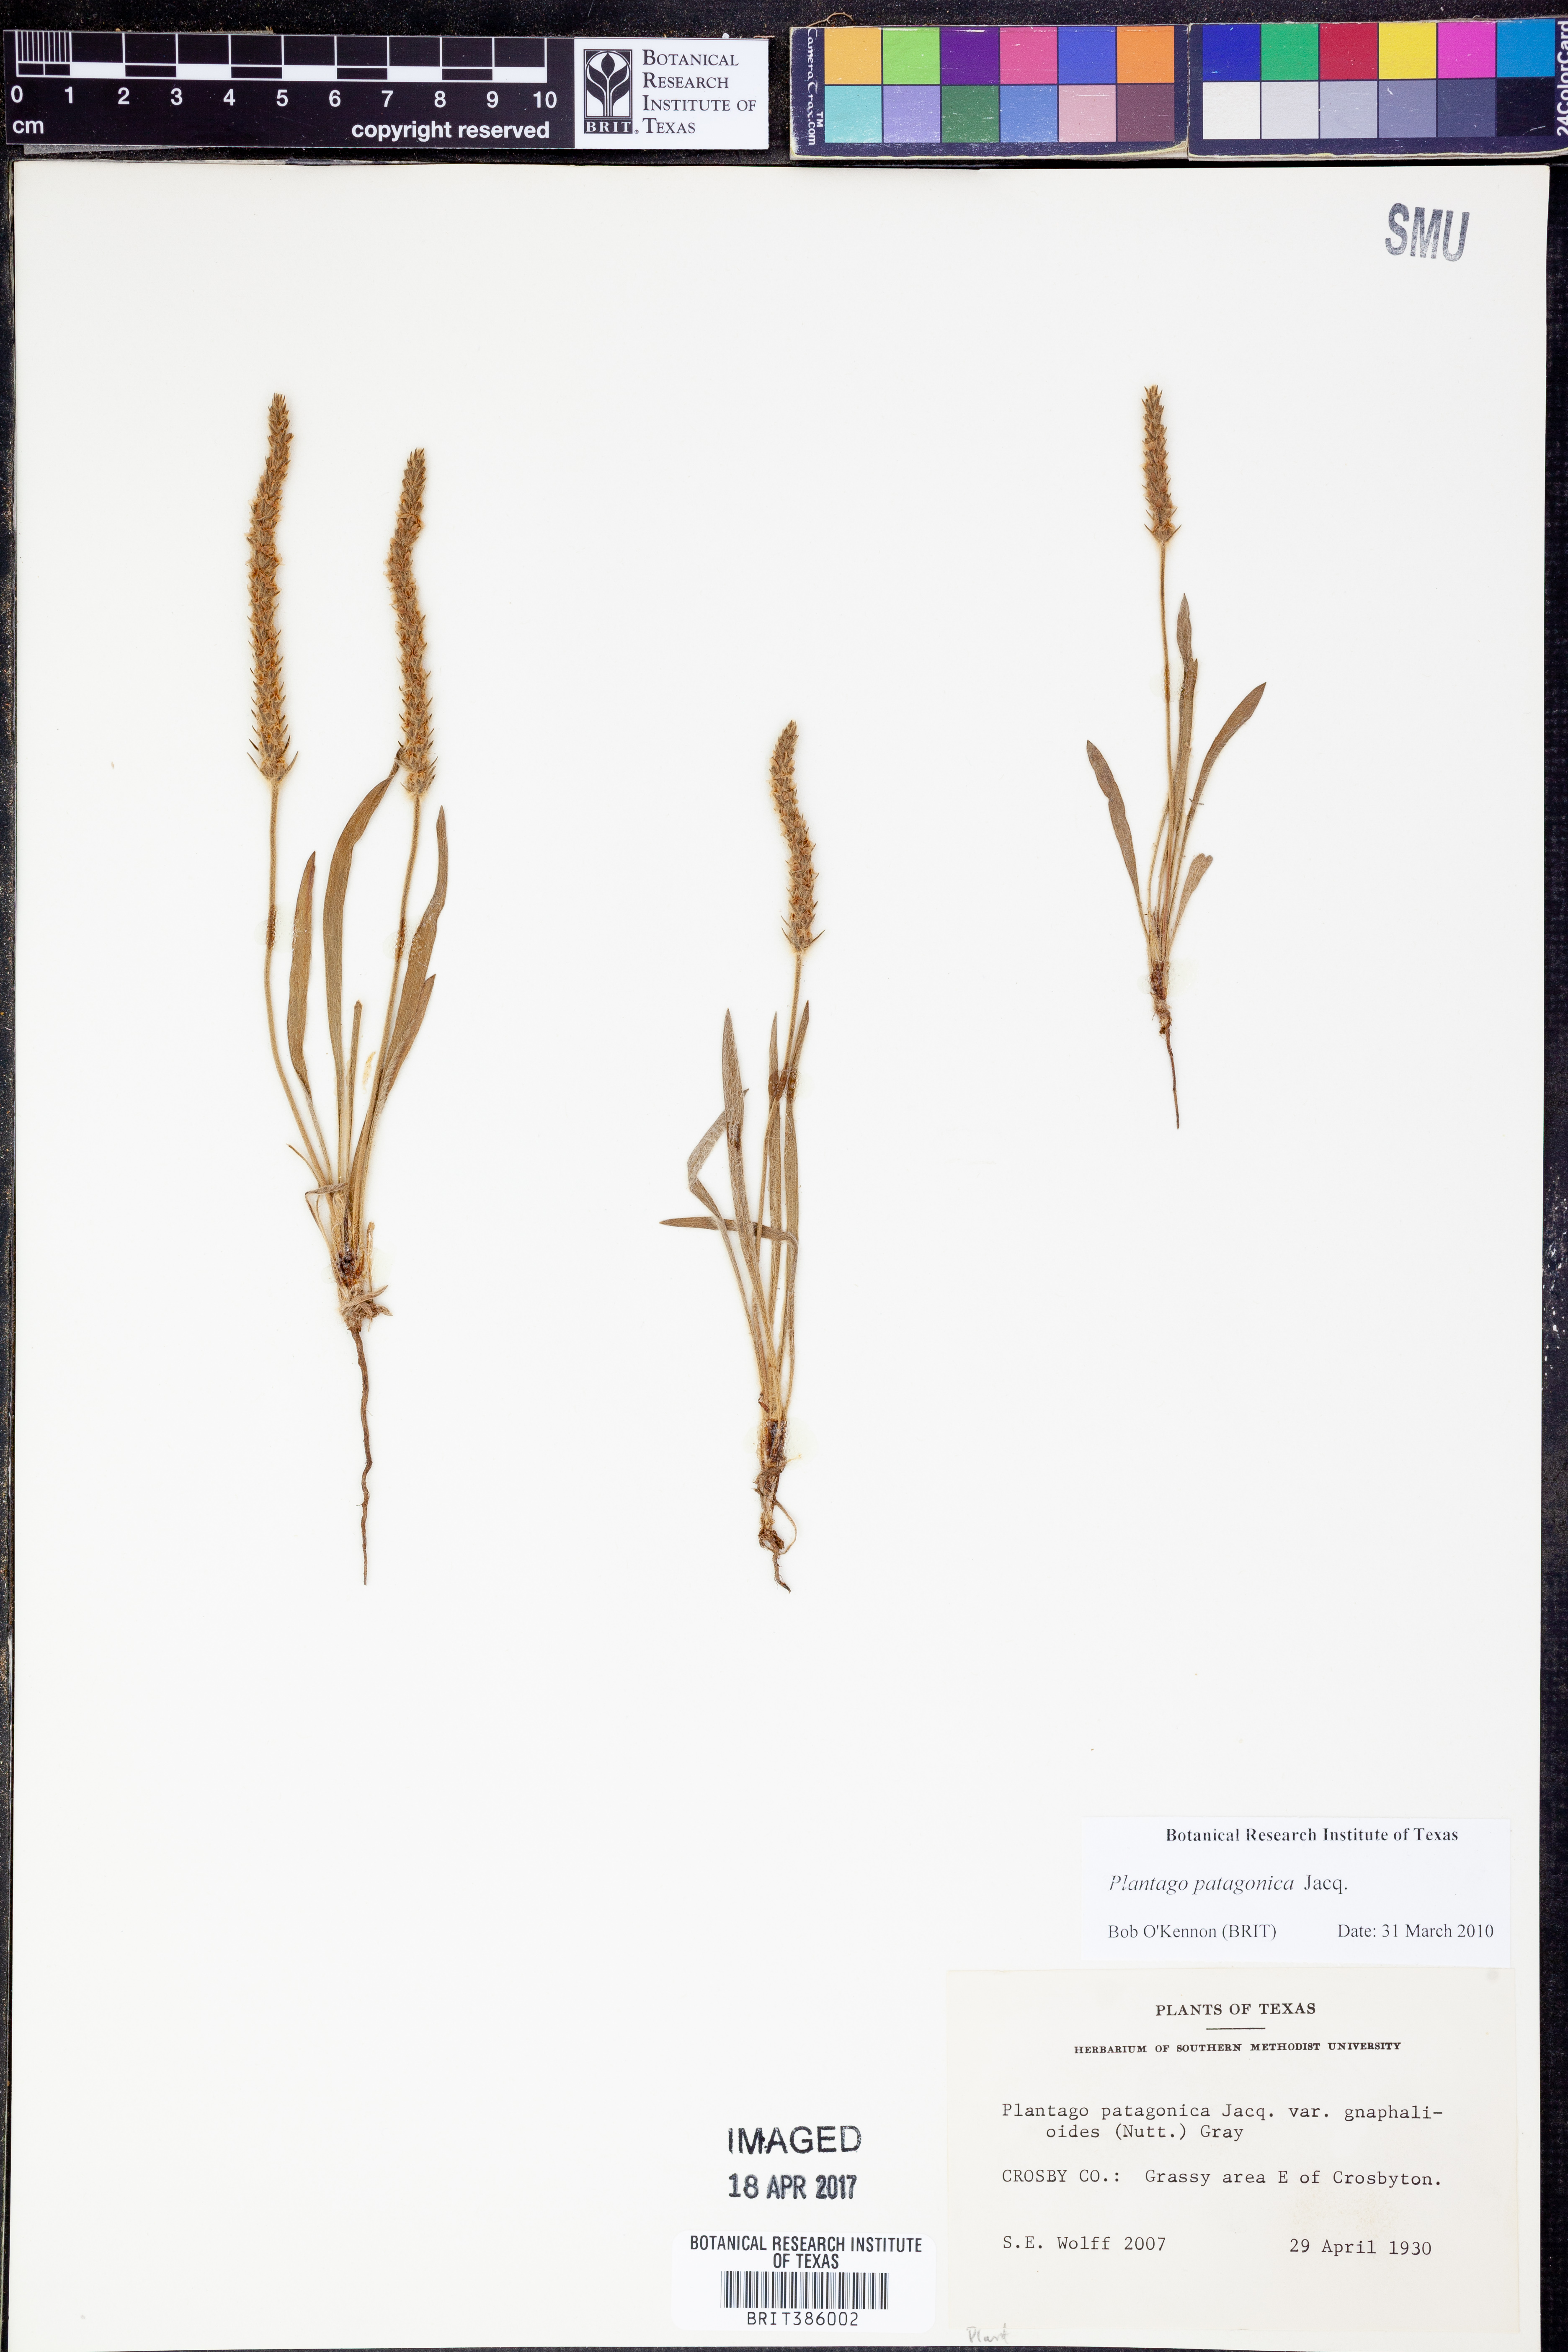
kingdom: Plantae
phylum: Tracheophyta
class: Magnoliopsida
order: Lamiales
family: Plantaginaceae
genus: Plantago
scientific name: Plantago patagonica
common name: Patagonia indian-wheat
